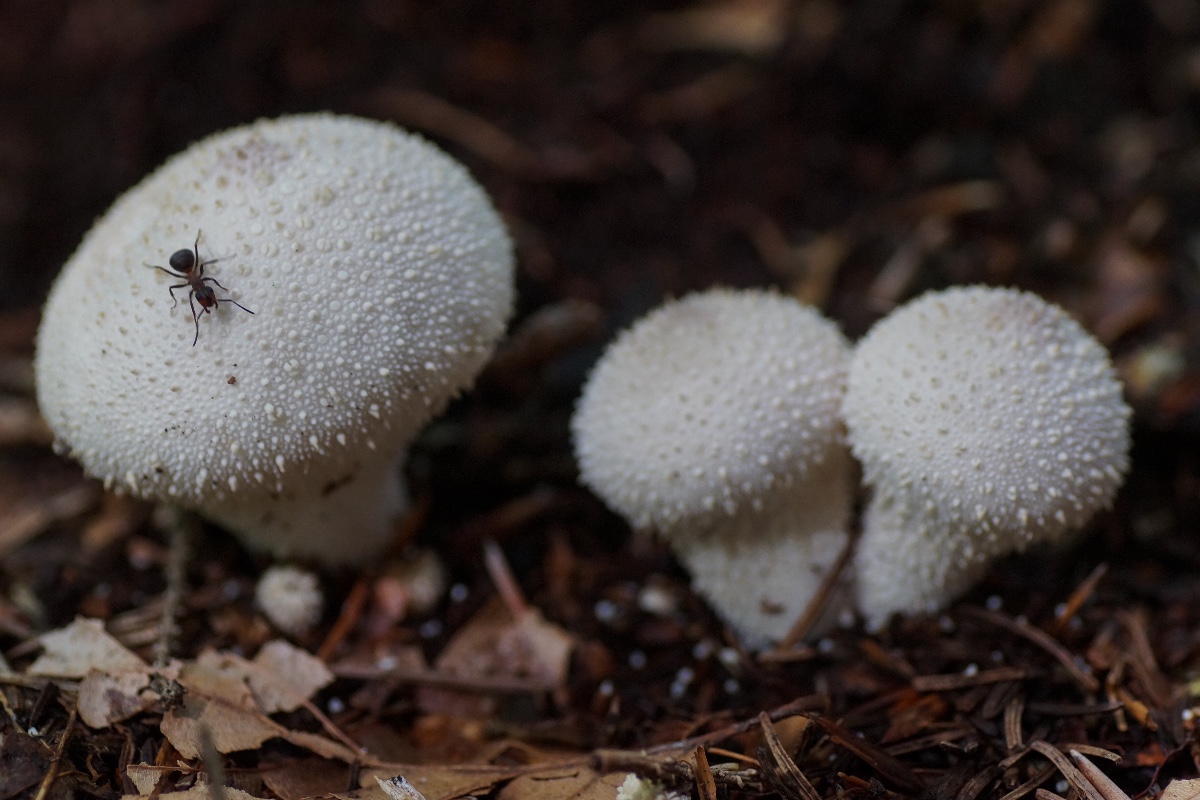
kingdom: Fungi
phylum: Basidiomycota
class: Agaricomycetes
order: Agaricales
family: Lycoperdaceae
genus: Lycoperdon
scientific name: Lycoperdon perlatum
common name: krystal-støvbold
